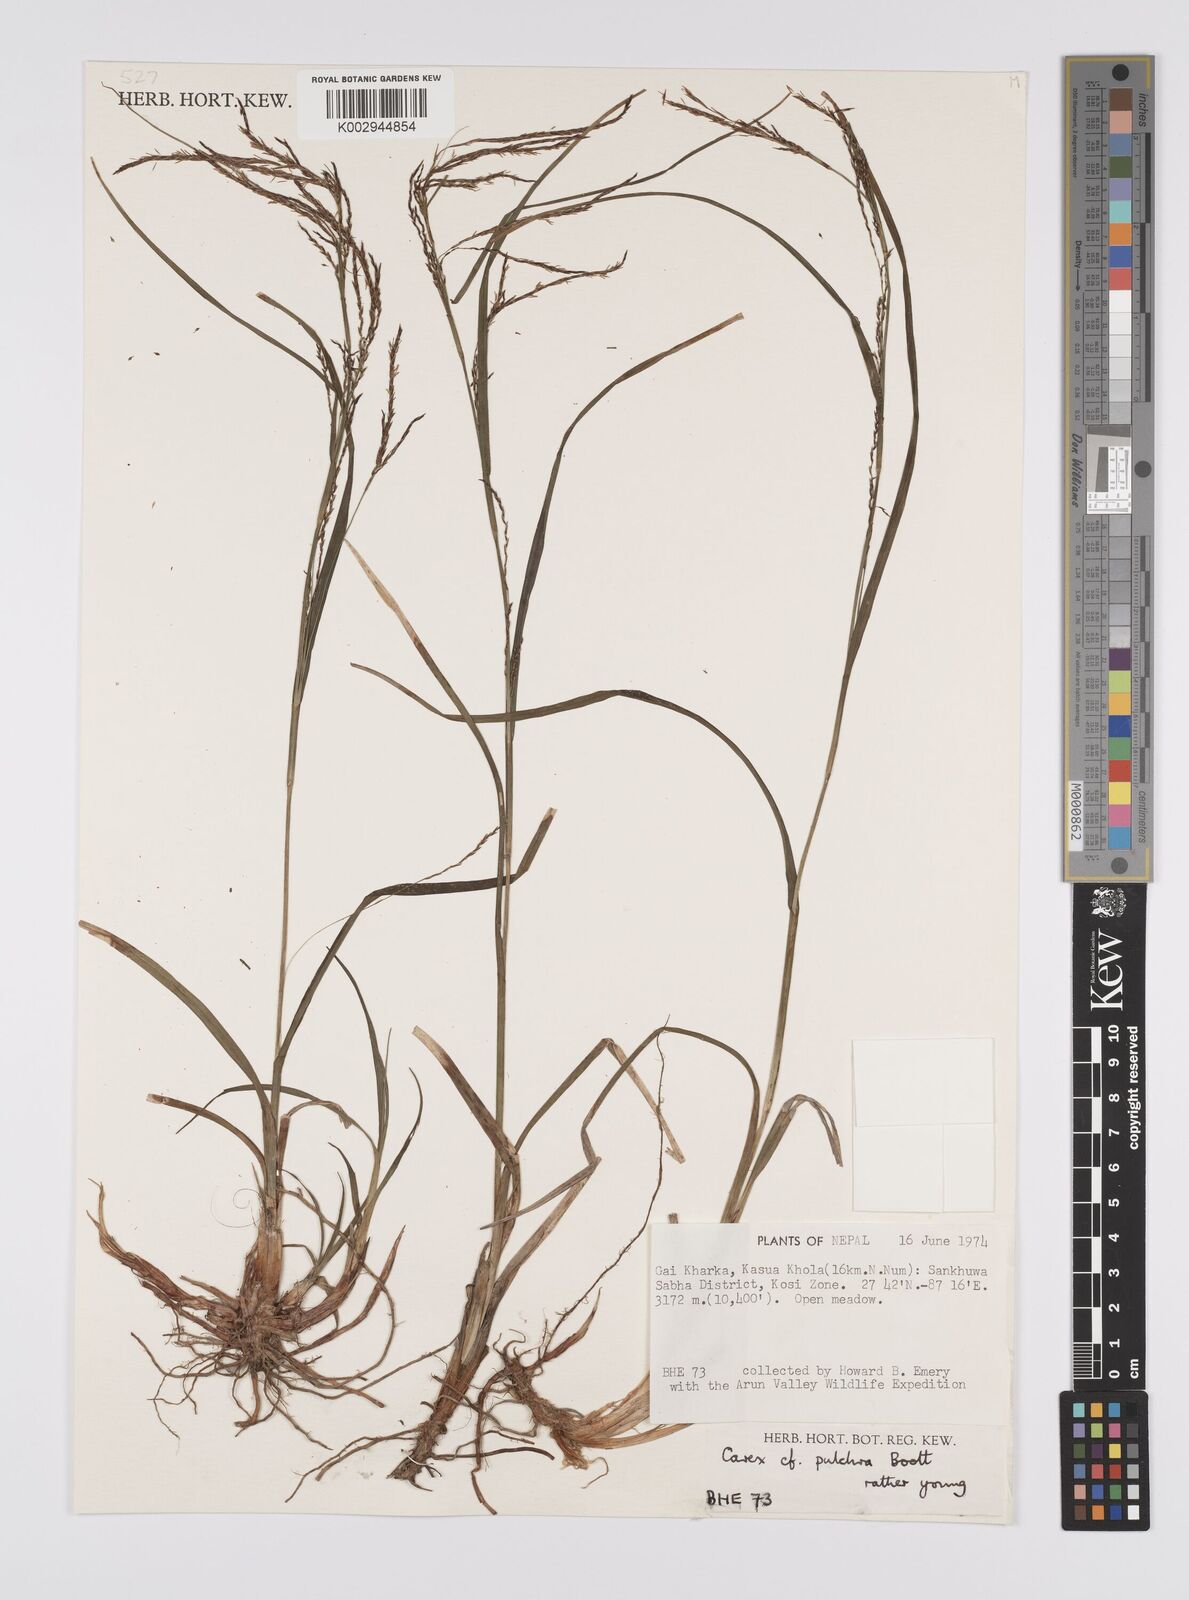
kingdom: Plantae
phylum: Tracheophyta
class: Liliopsida
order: Poales
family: Cyperaceae
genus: Carex
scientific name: Carex pulchra
